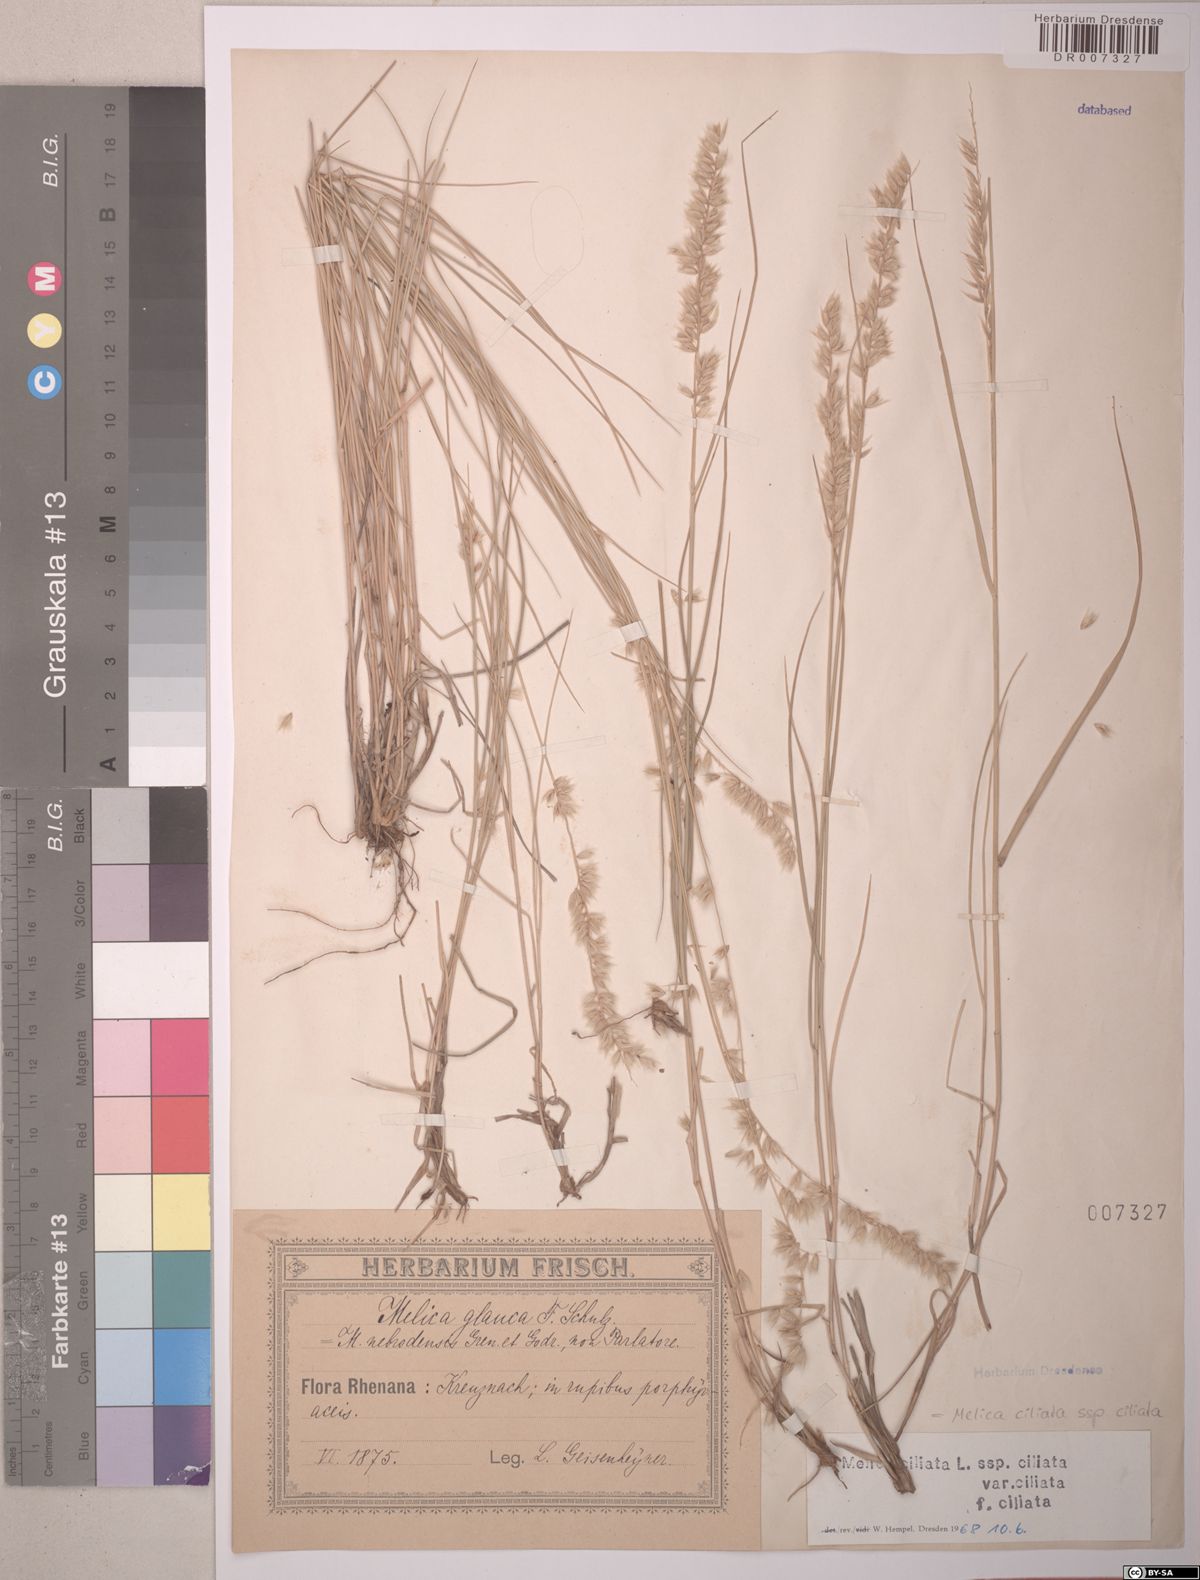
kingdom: Plantae
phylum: Tracheophyta
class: Liliopsida
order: Poales
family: Poaceae
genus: Melica
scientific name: Melica ciliata
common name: Hairy melicgrass
